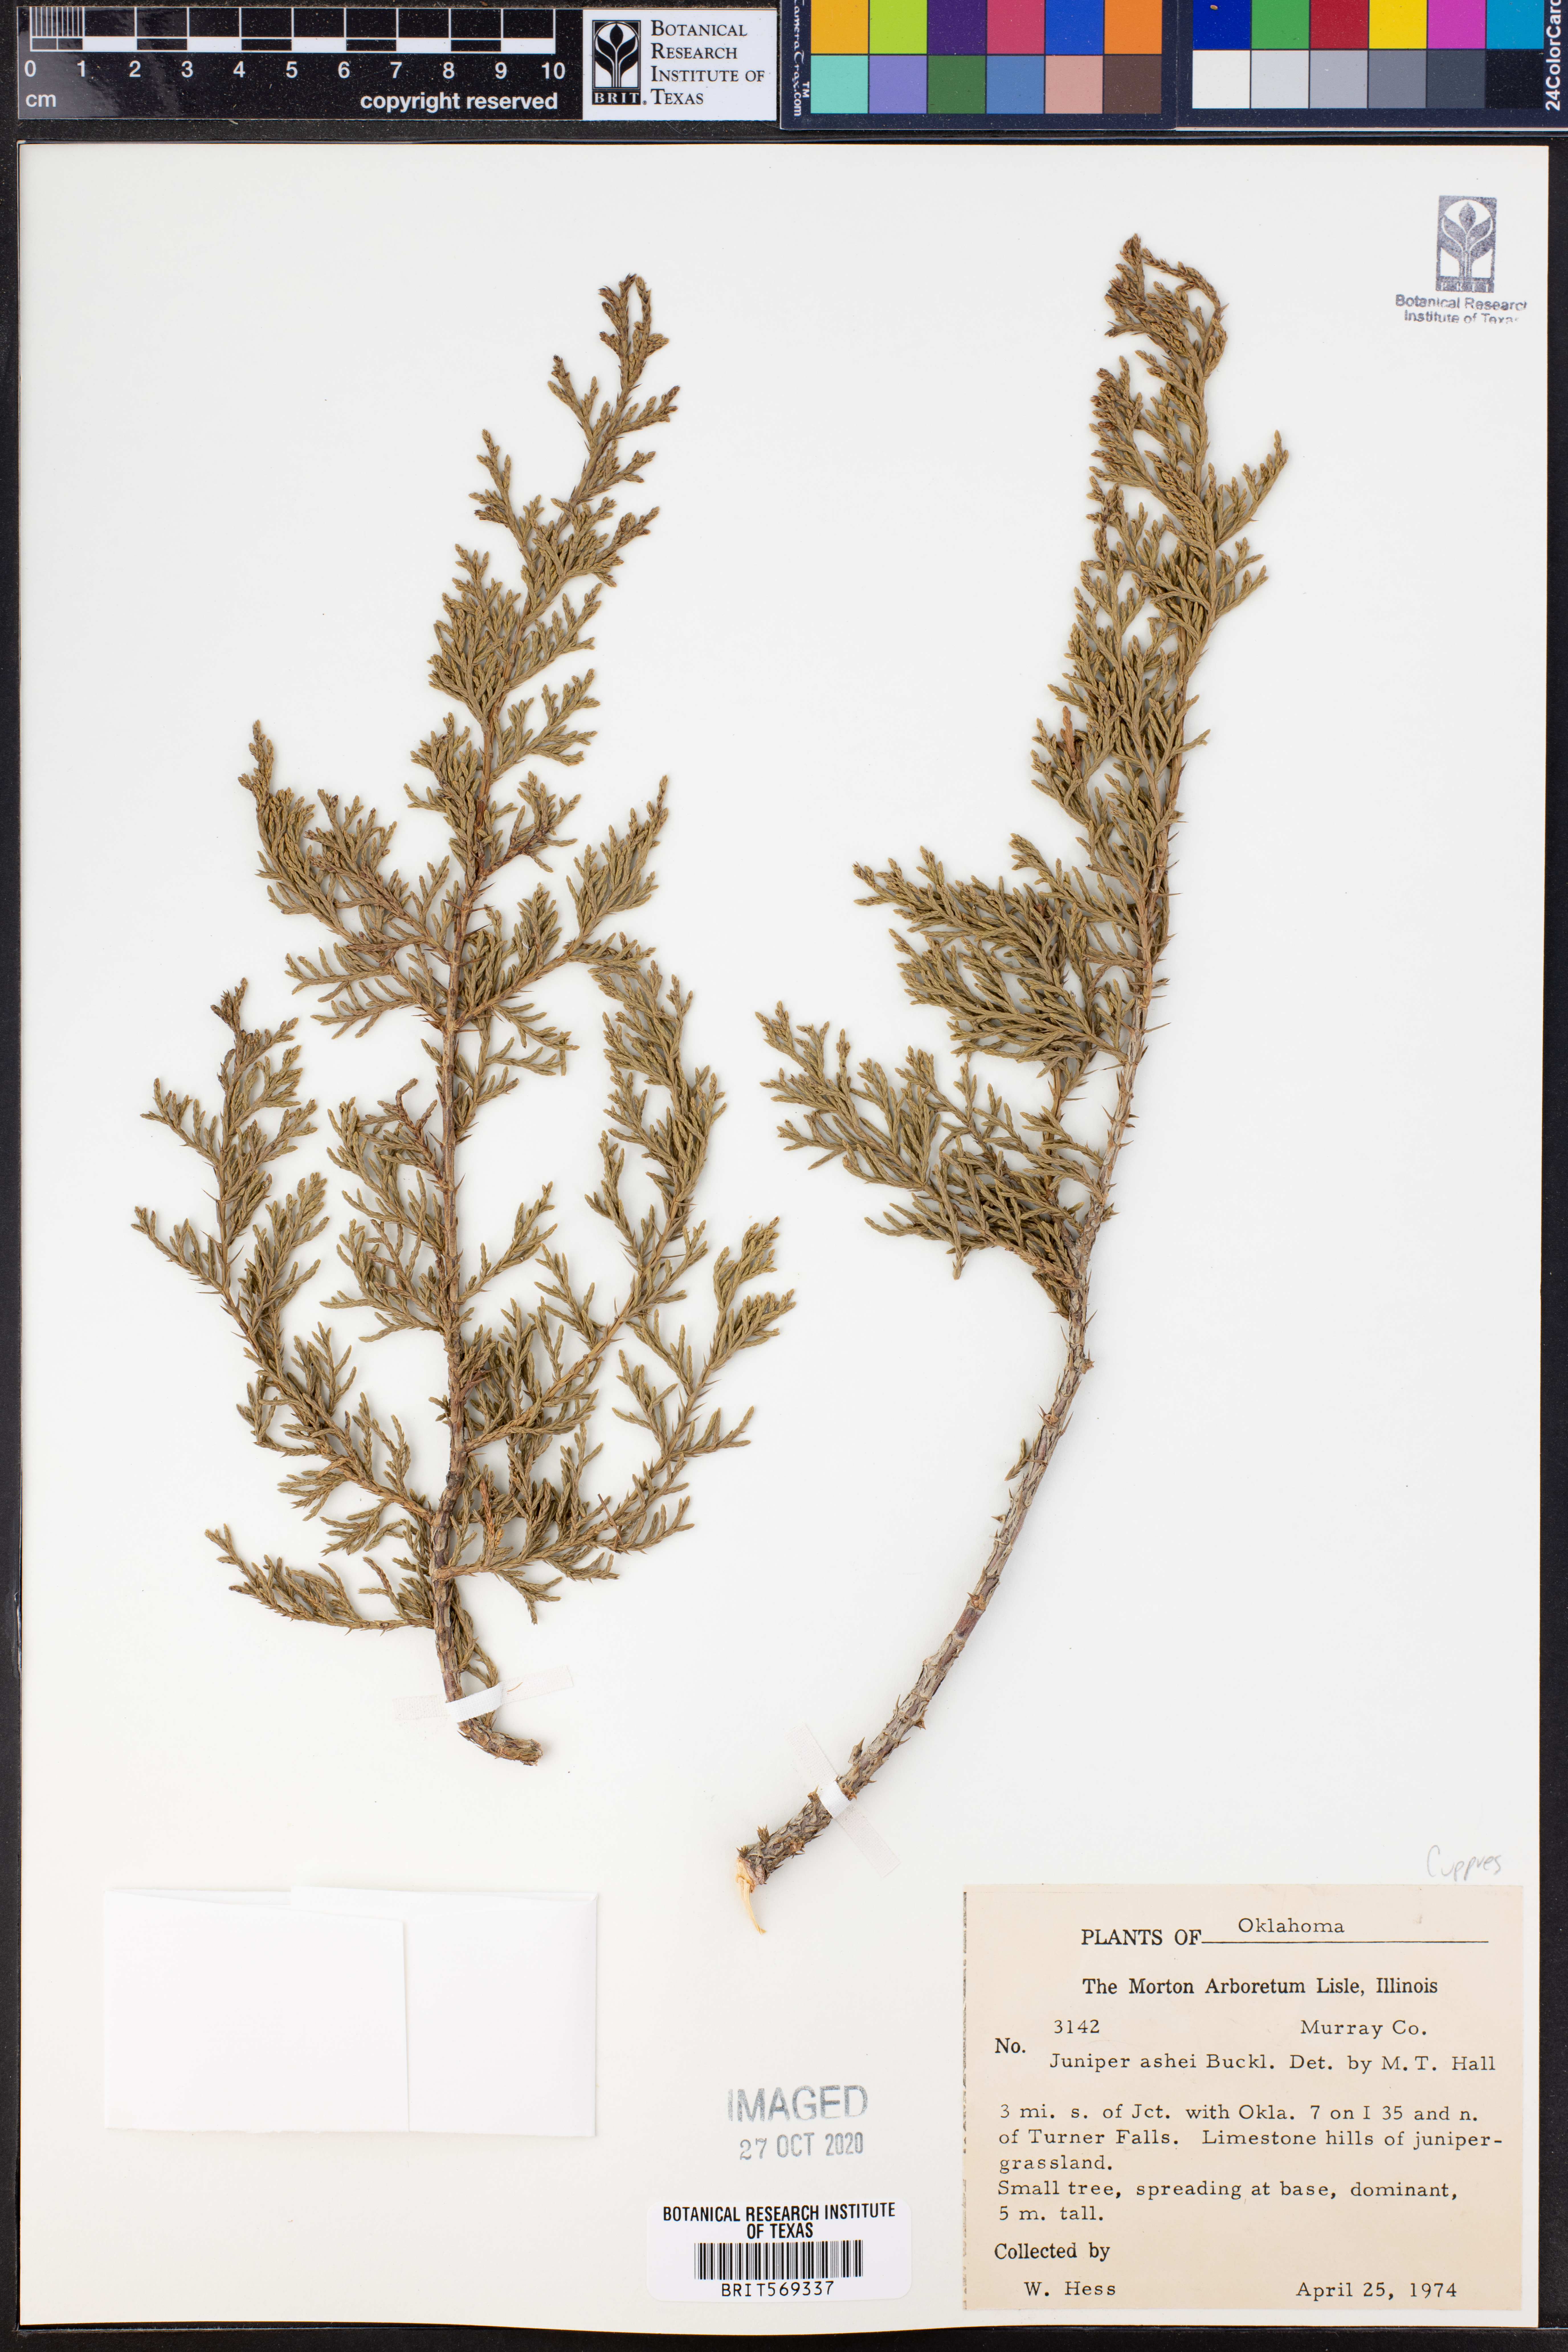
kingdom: Plantae
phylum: Tracheophyta
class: Pinopsida
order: Pinales
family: Cupressaceae
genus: Juniperus
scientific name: Juniperus ashei
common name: Mexican juniper
